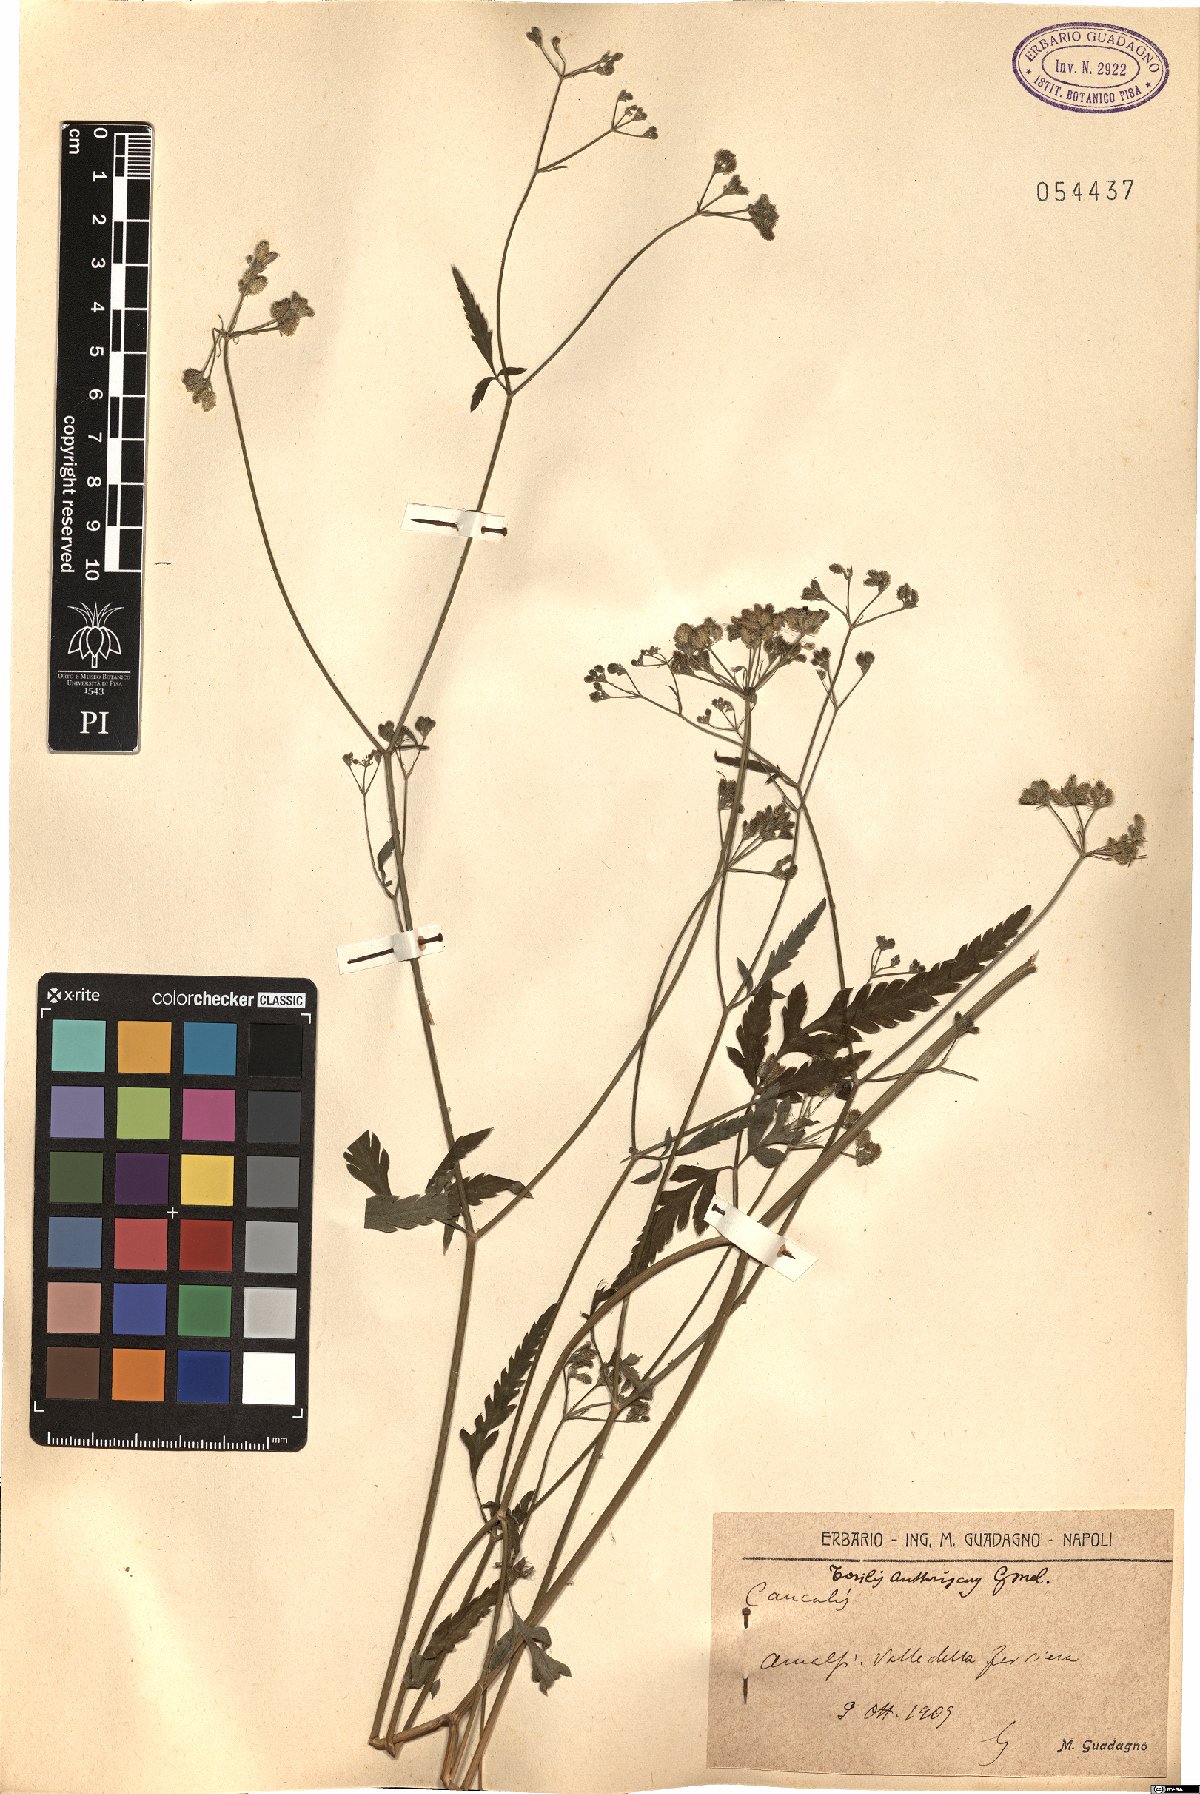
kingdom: Plantae
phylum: Tracheophyta
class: Magnoliopsida
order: Apiales
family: Apiaceae
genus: Torilis
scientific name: Torilis japonica
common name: Upright hedge-parsley
